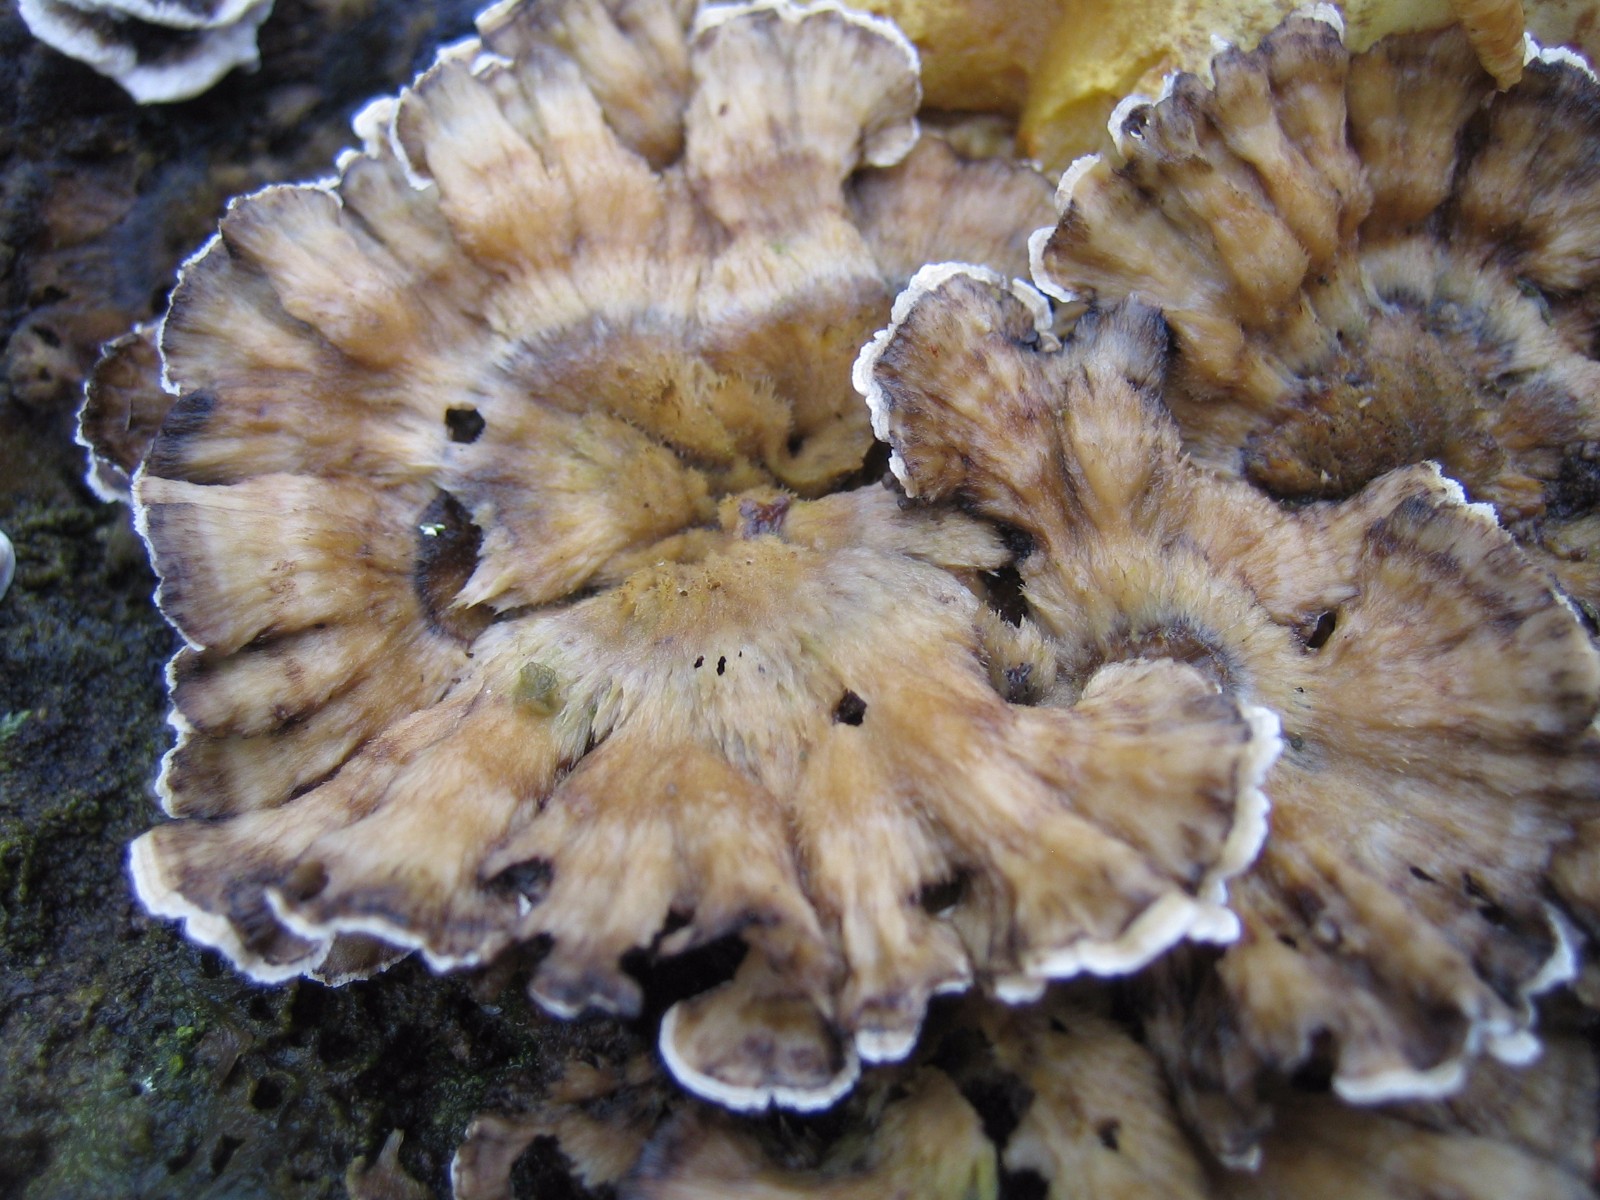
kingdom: Fungi
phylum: Basidiomycota
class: Agaricomycetes
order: Polyporales
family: Phanerochaetaceae
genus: Bjerkandera
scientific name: Bjerkandera adusta
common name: sveden sodporesvamp
